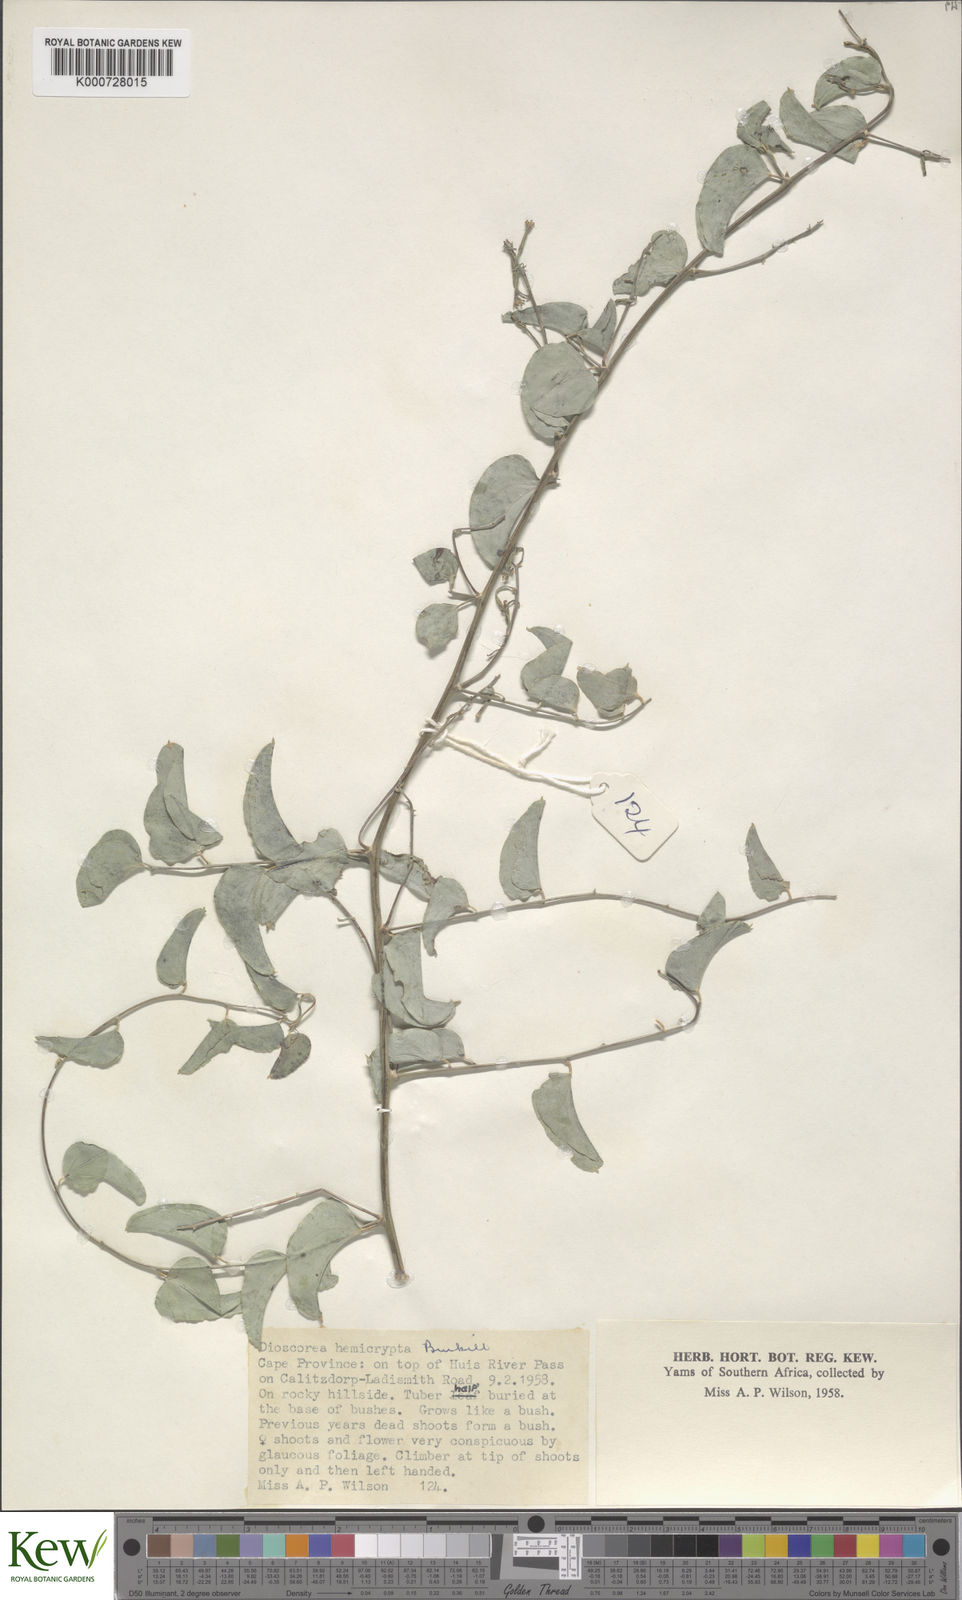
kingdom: Plantae
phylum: Tracheophyta
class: Liliopsida
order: Dioscoreales
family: Dioscoreaceae
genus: Dioscorea
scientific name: Dioscorea hemicrypta
